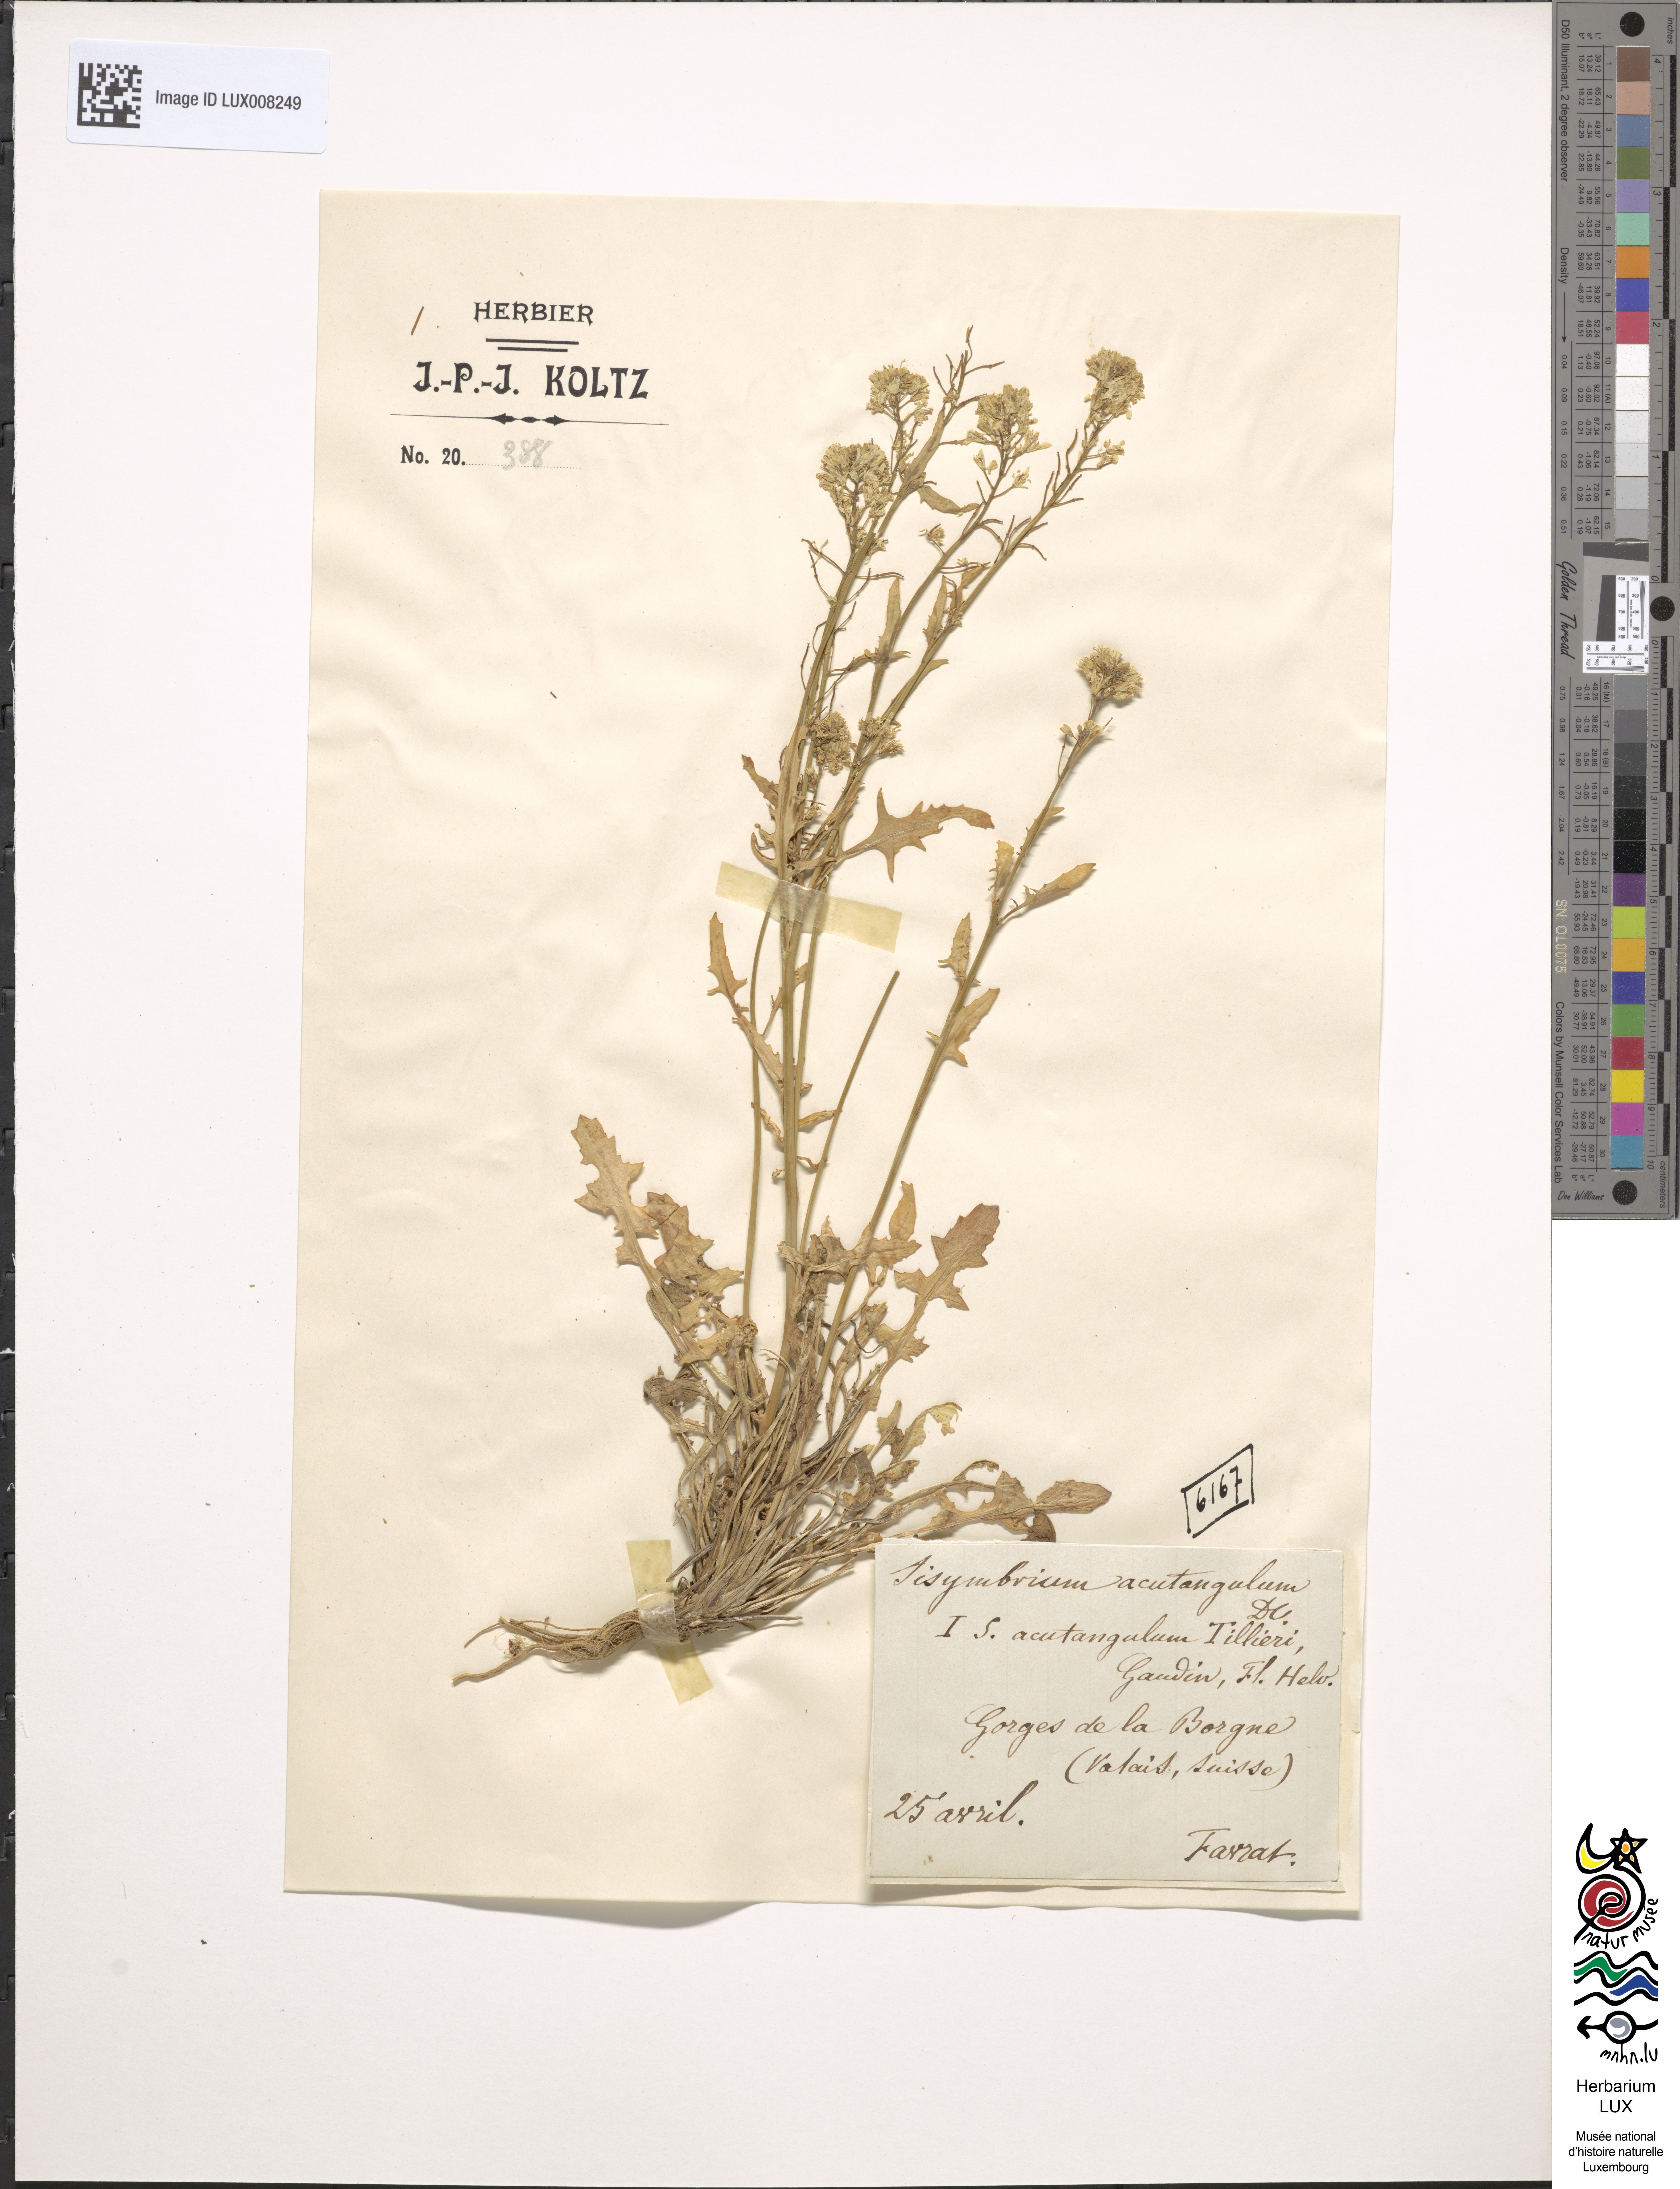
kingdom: Plantae
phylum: Tracheophyta
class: Magnoliopsida
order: Brassicales
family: Brassicaceae
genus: Sisymbrium
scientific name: Sisymbrium chrysanthum
